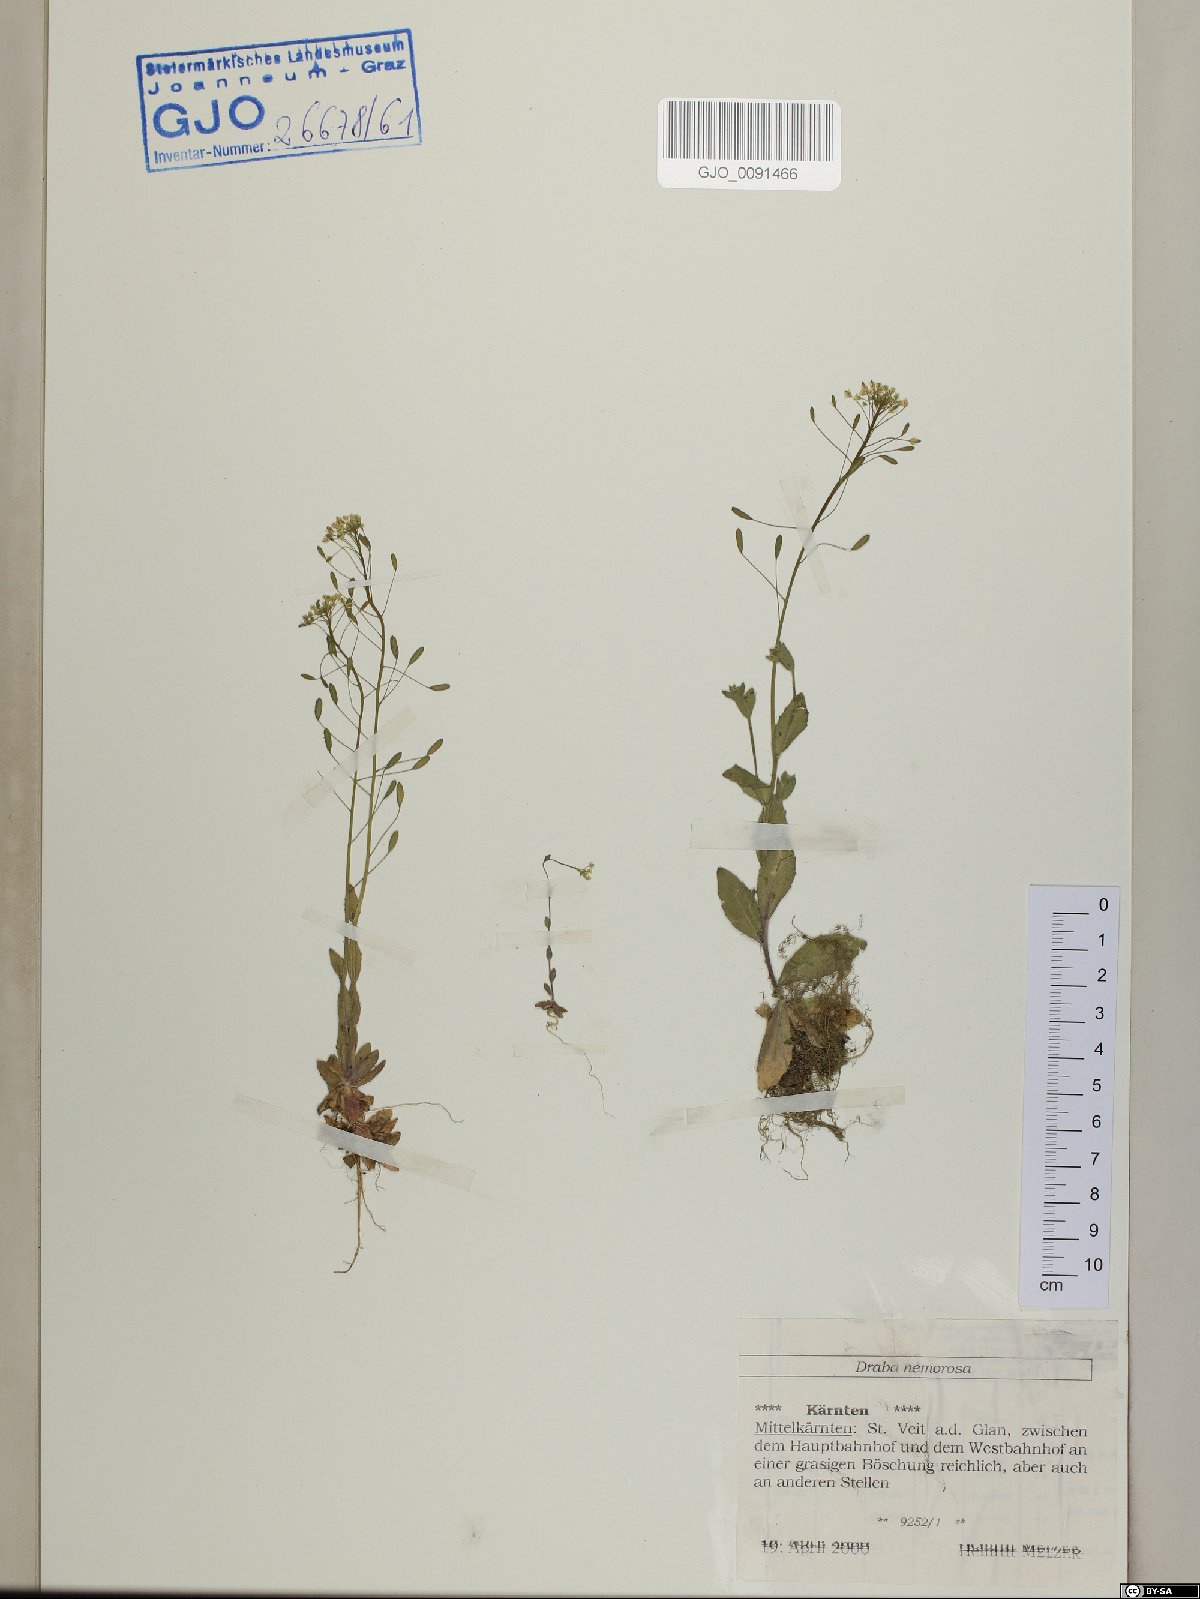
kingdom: Plantae
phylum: Tracheophyta
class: Magnoliopsida
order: Brassicales
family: Brassicaceae
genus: Draba
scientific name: Draba nemorosa
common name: Wood whitlow-grass
